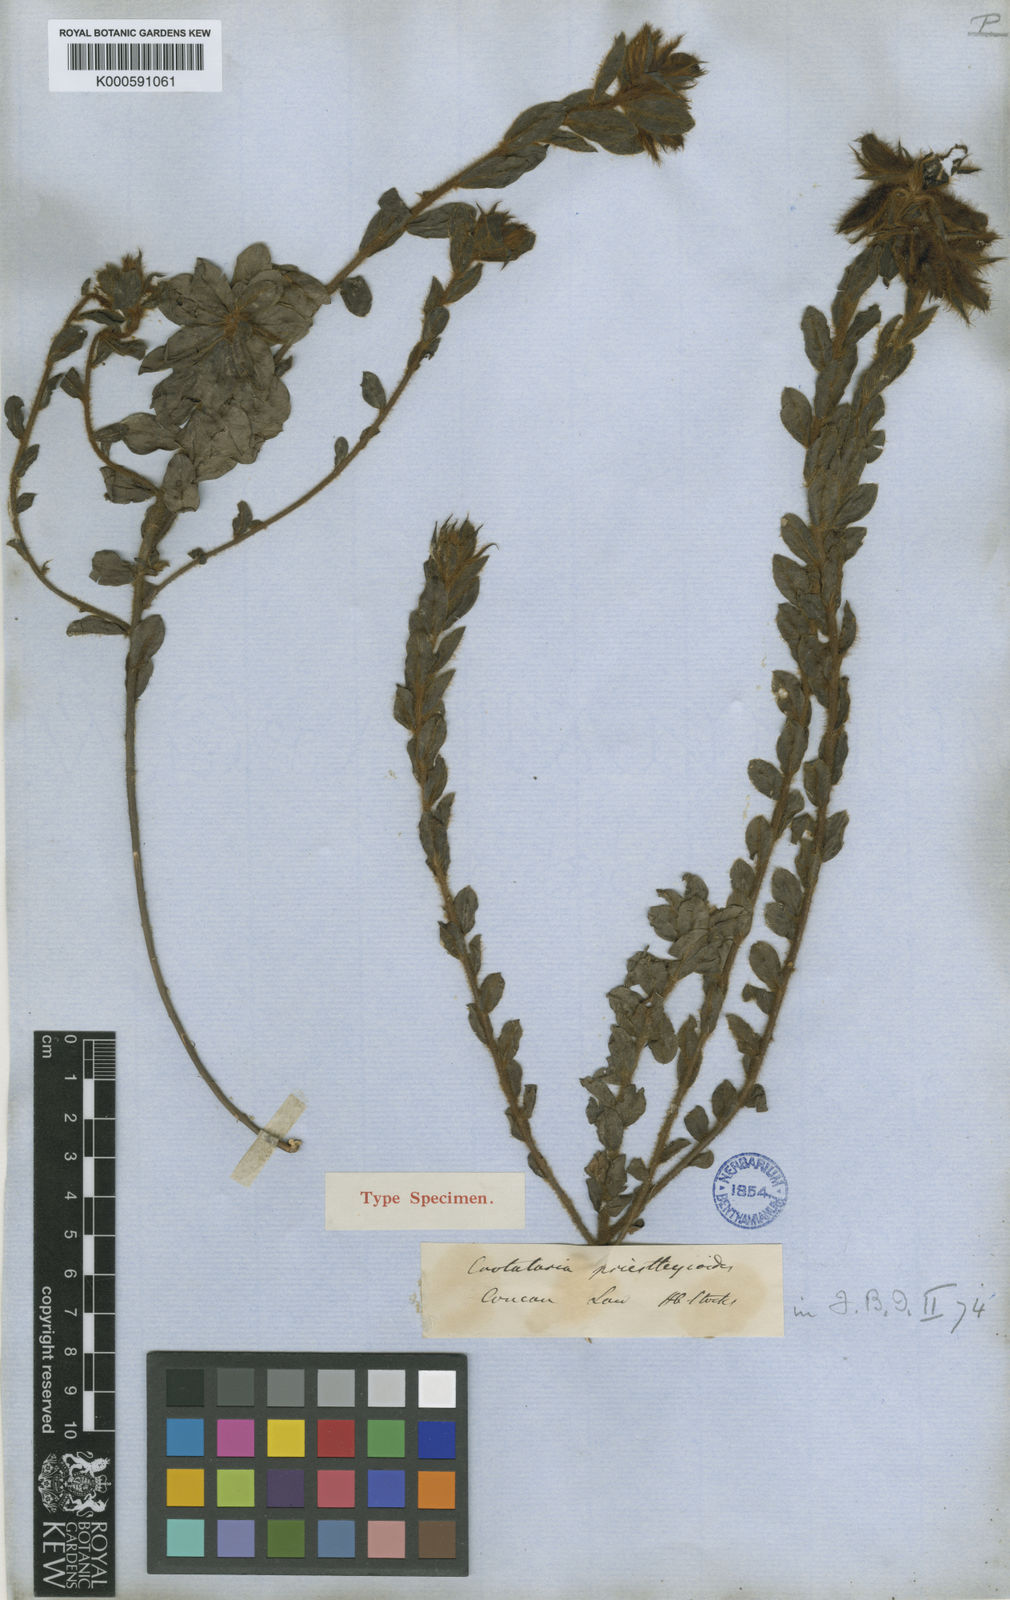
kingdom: Plantae
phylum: Tracheophyta
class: Magnoliopsida
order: Fabales
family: Fabaceae
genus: Crotalaria
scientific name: Crotalaria
